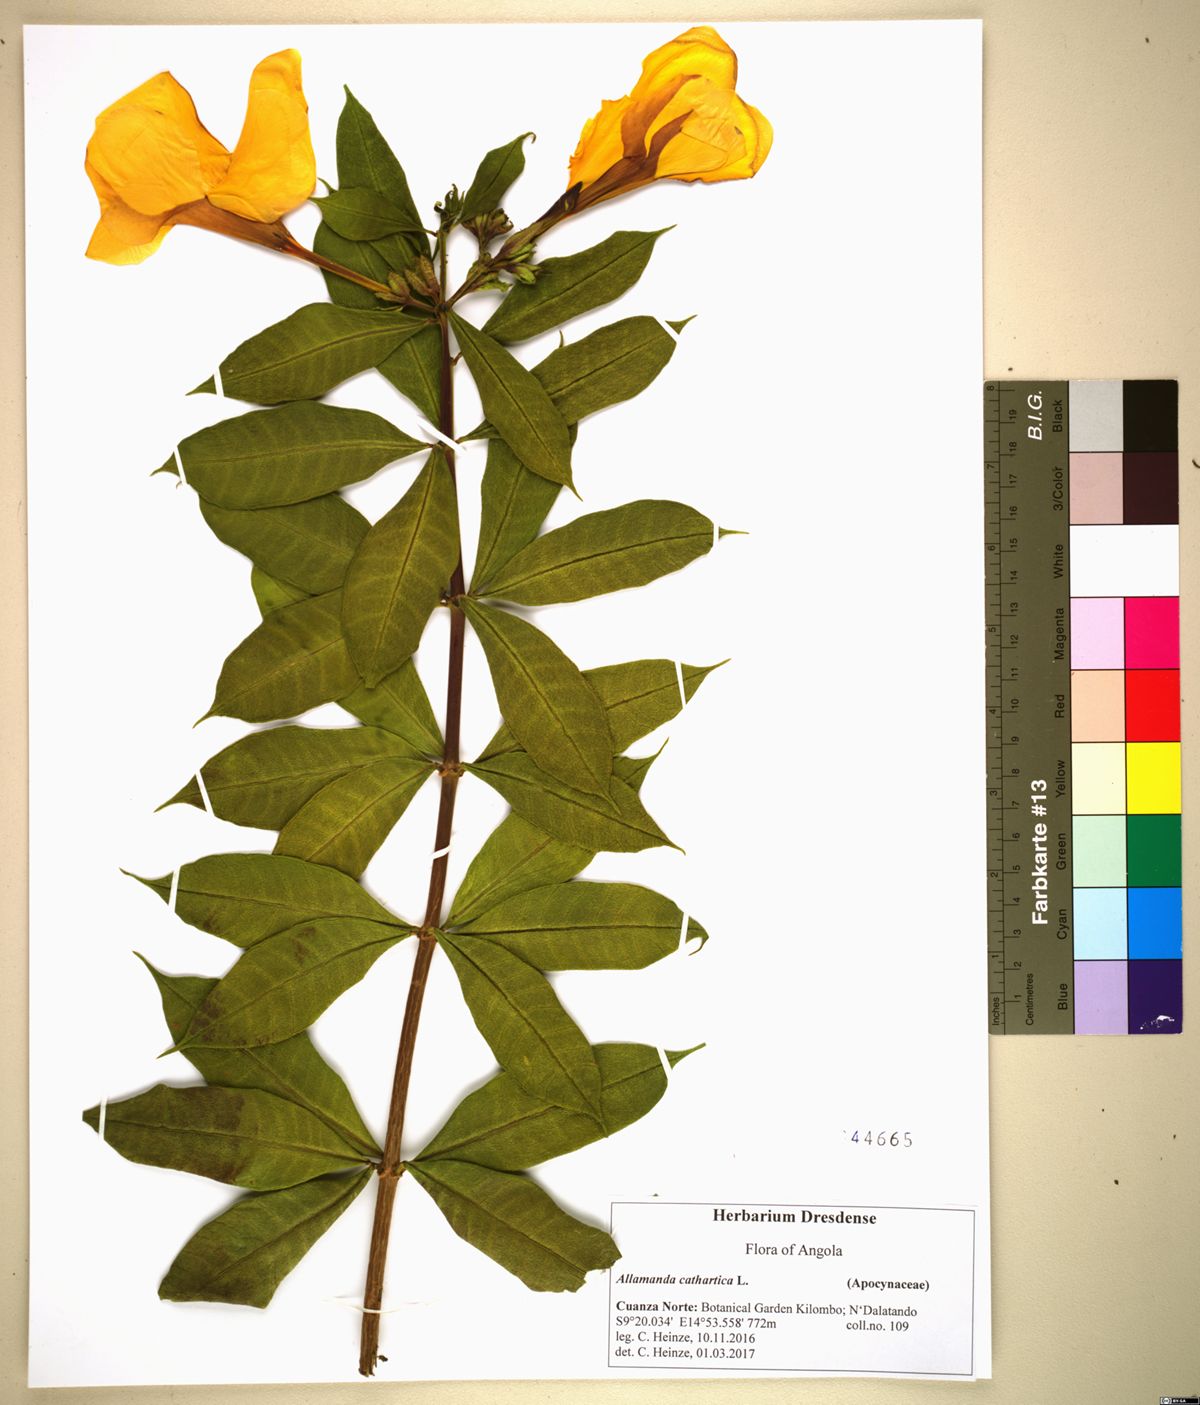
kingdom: Plantae
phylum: Tracheophyta
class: Magnoliopsida
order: Gentianales
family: Apocynaceae
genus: Allamanda
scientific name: Allamanda cathartica
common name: Golden trumpet
